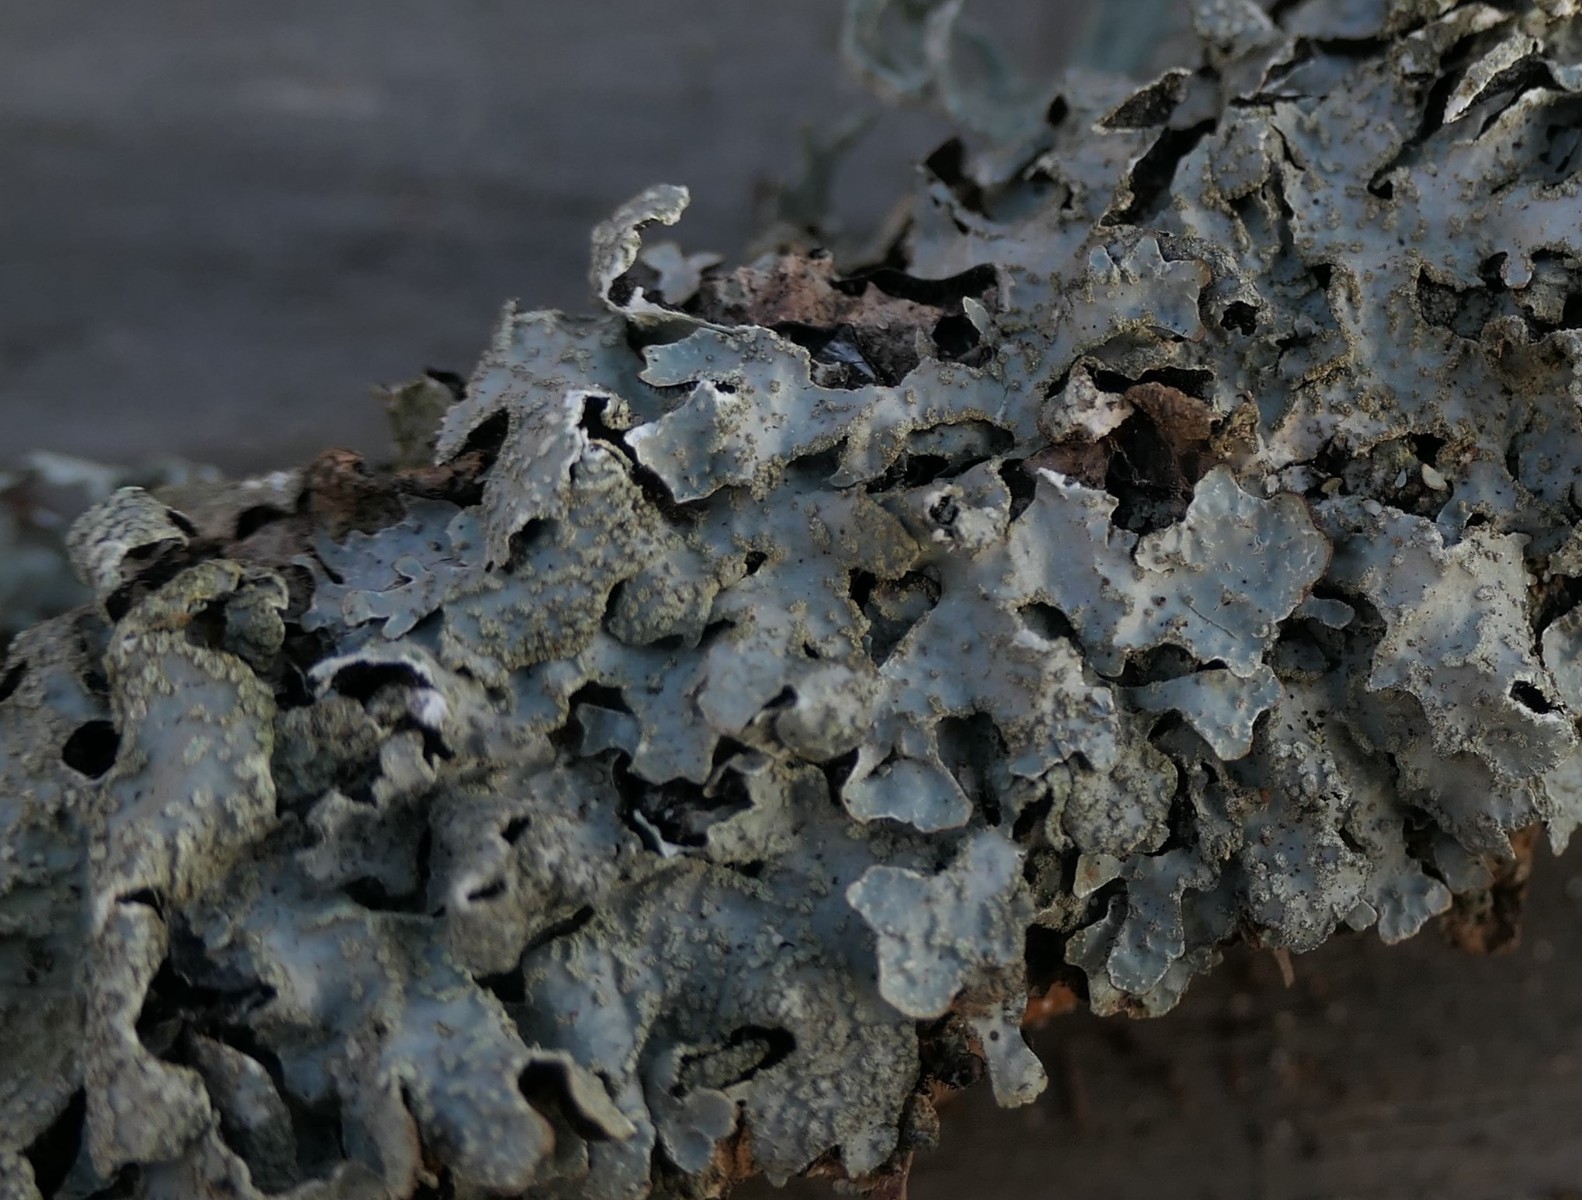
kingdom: Fungi
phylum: Ascomycota
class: Lecanoromycetes
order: Lecanorales
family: Parmeliaceae
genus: Parmelia
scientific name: Parmelia sulcata
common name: rynket skållav
